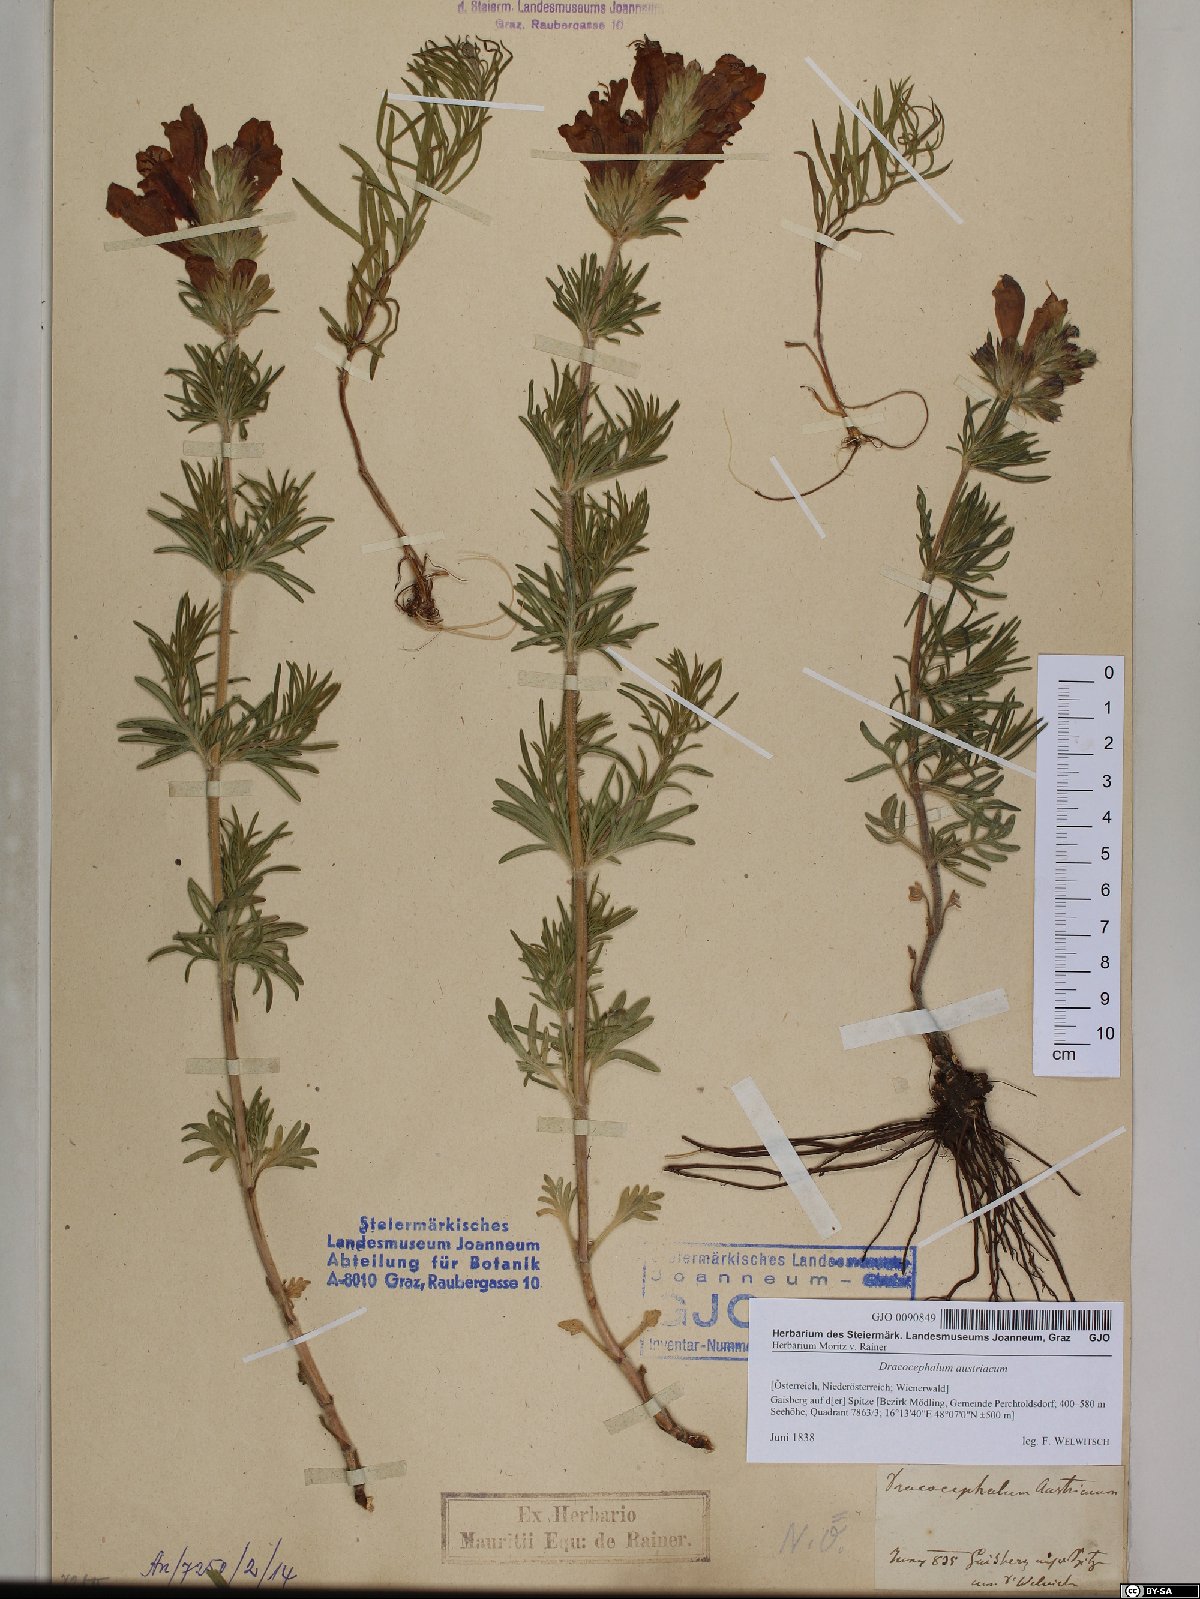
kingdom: Plantae
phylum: Tracheophyta
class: Magnoliopsida
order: Lamiales
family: Lamiaceae
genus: Dracocephalum
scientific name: Dracocephalum austriacum
